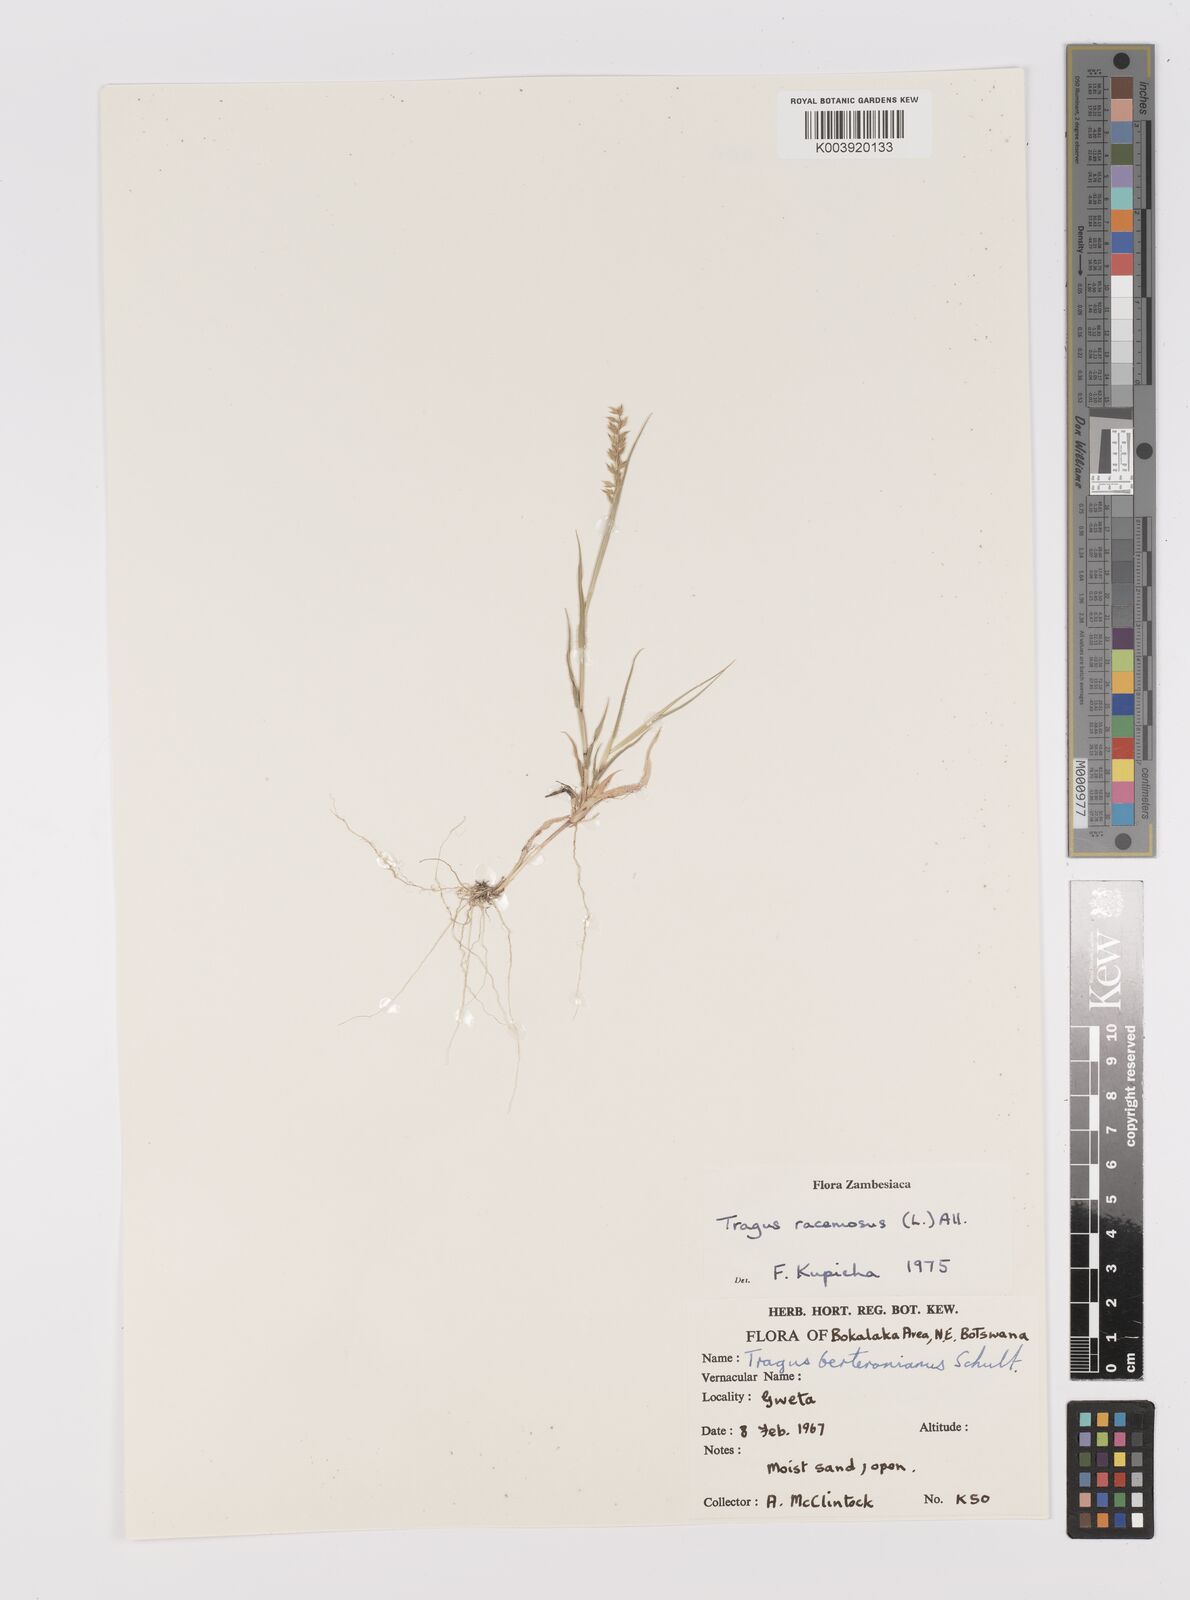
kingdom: Plantae
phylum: Tracheophyta
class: Liliopsida
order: Poales
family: Poaceae
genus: Tragus
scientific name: Tragus racemosus
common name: European bur-grass
